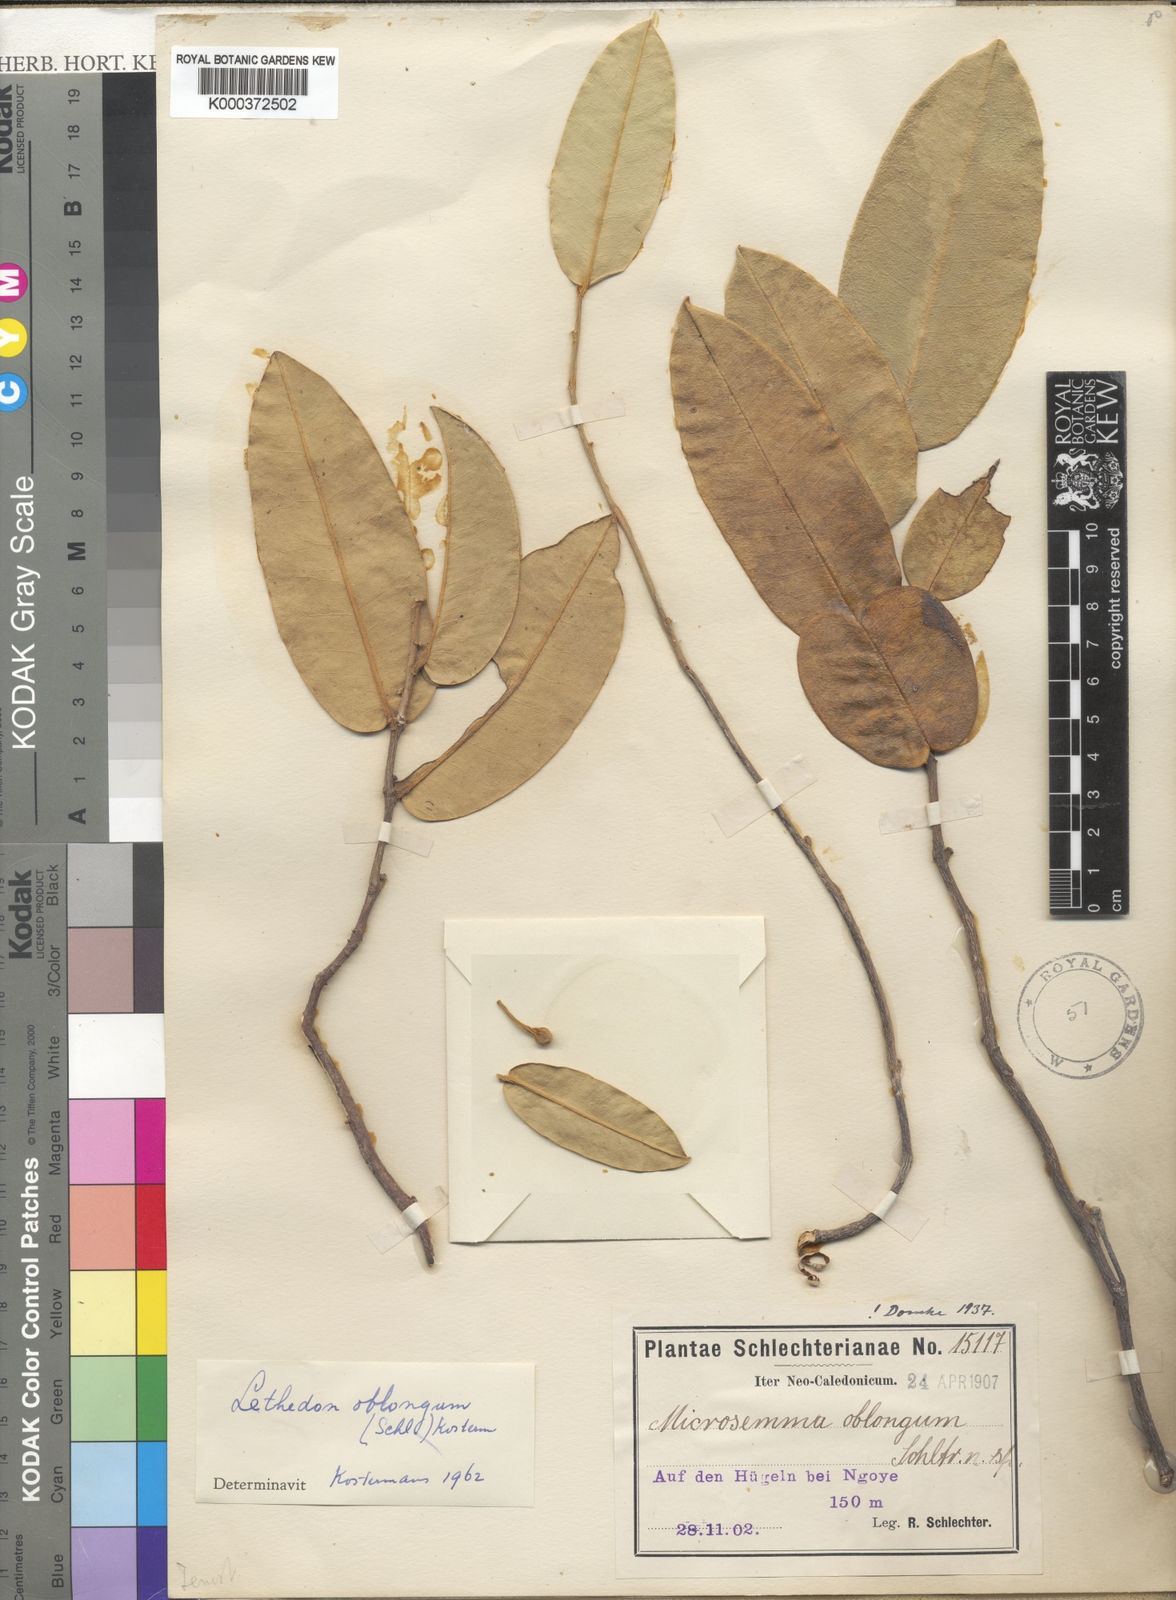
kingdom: Plantae
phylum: Tracheophyta
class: Magnoliopsida
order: Malvales
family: Thymelaeaceae
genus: Lethedon
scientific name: Lethedon oblonga
